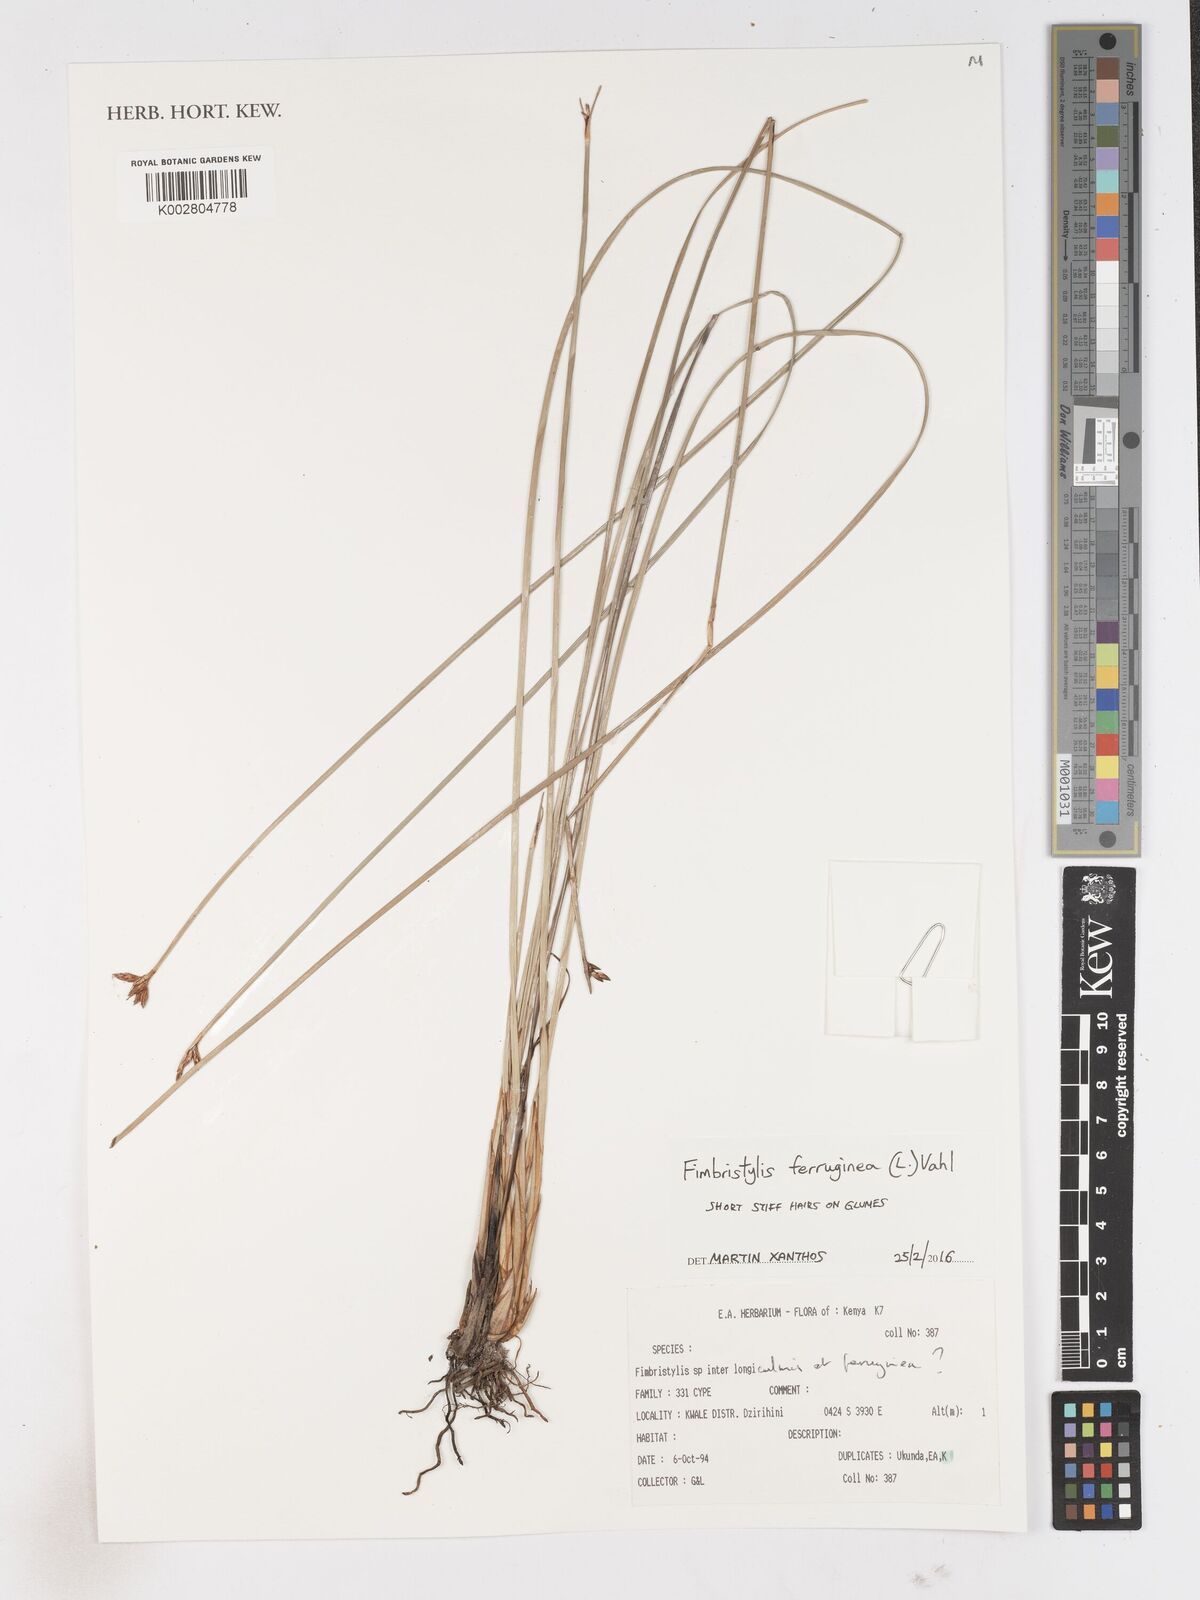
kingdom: Plantae
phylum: Tracheophyta
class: Liliopsida
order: Poales
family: Cyperaceae
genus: Fimbristylis
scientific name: Fimbristylis ferruginea
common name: West indian fimbry
